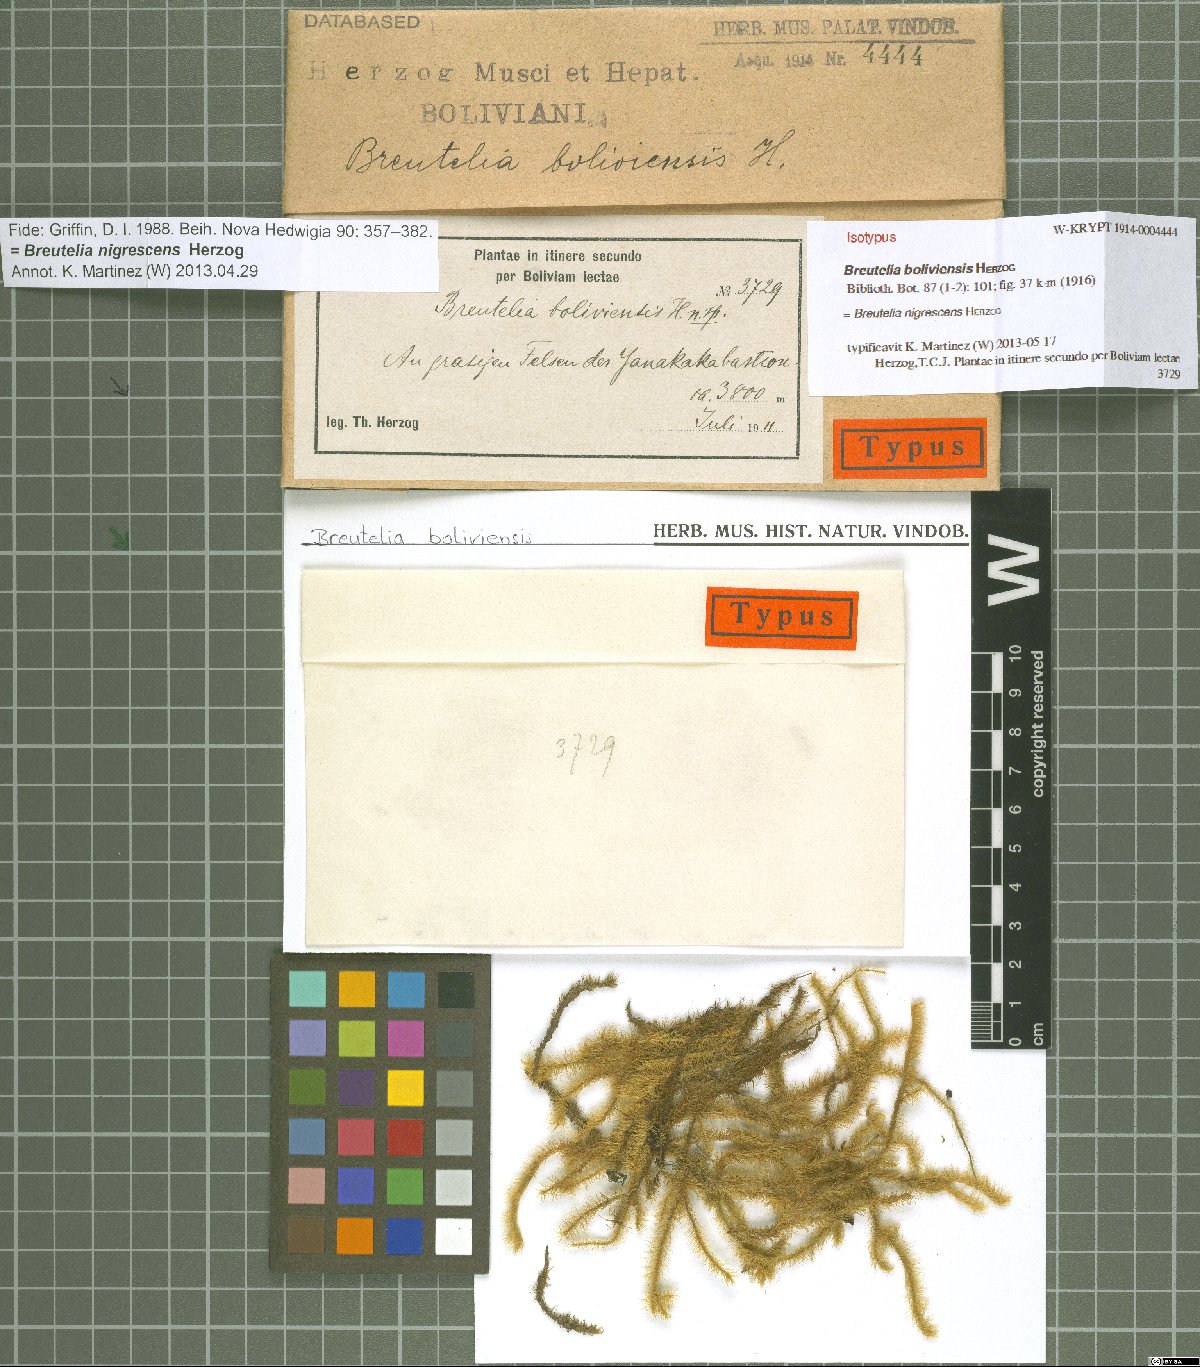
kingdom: Plantae
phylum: Bryophyta
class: Bryopsida
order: Bartramiales
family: Bartramiaceae
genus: Breutelia
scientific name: Breutelia nigrescens
